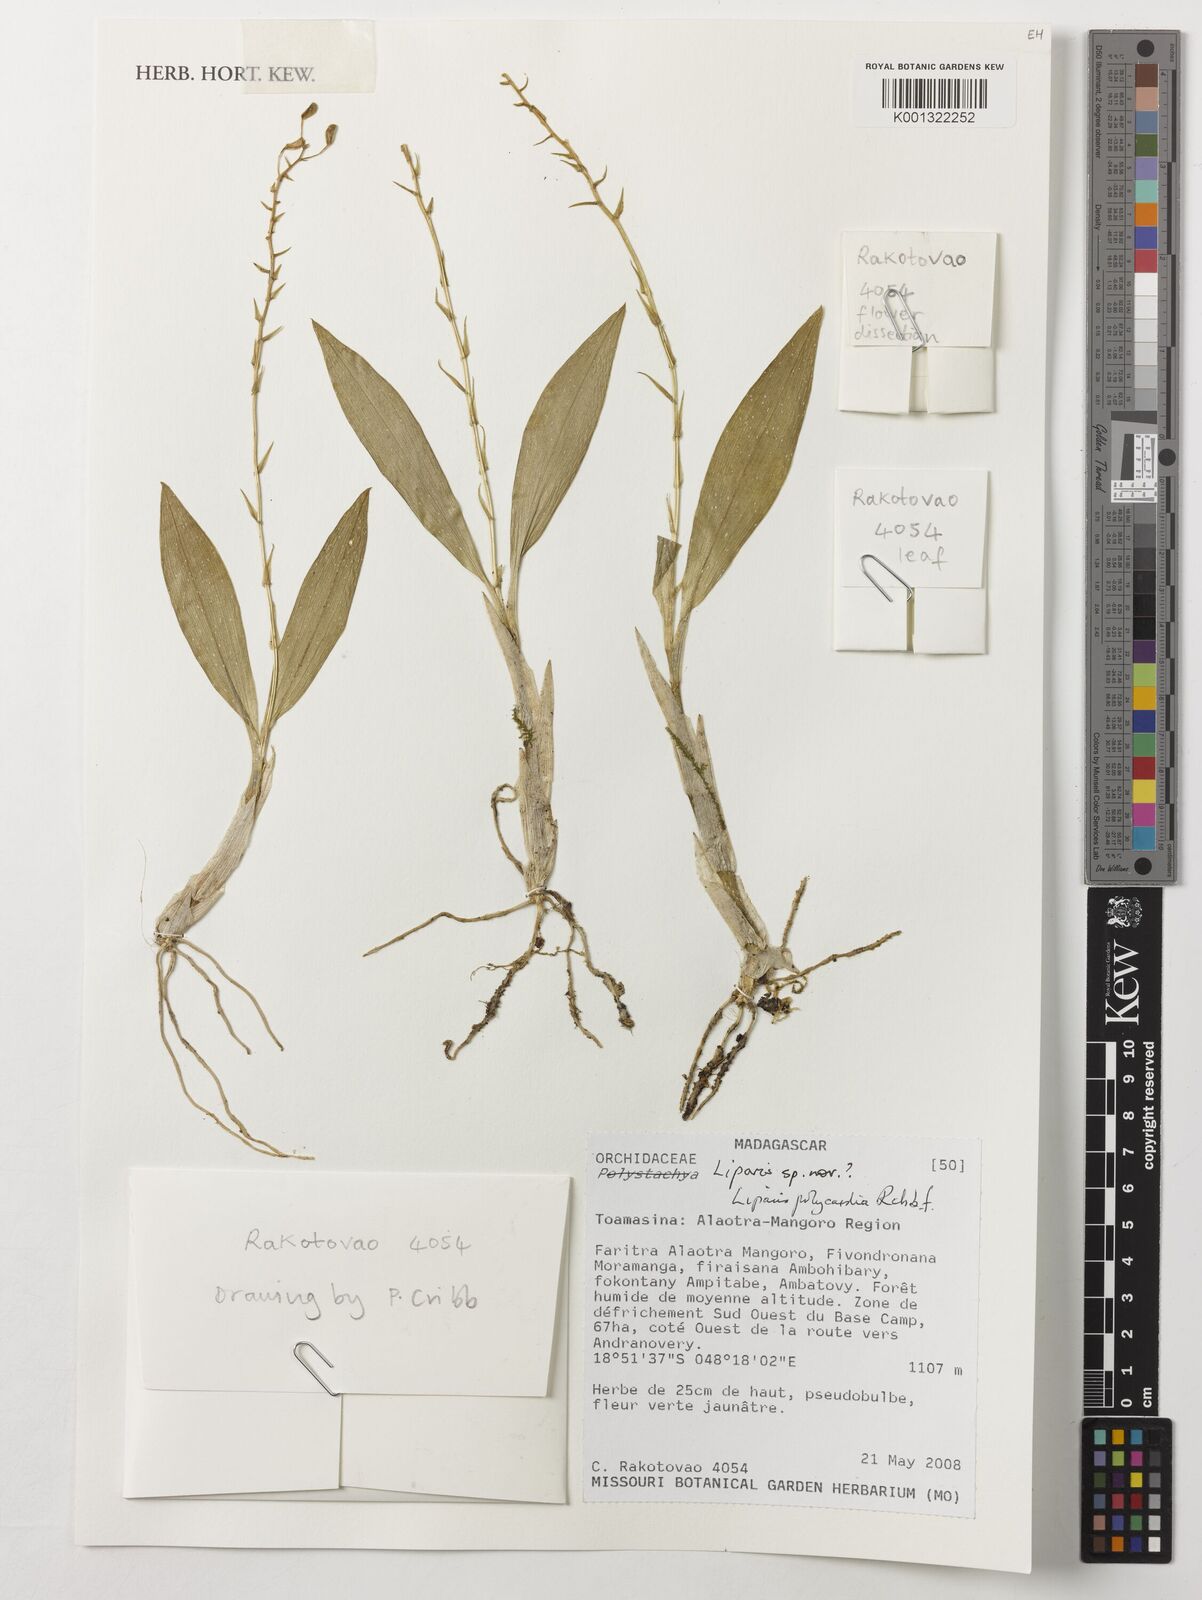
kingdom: Plantae
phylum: Tracheophyta
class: Liliopsida
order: Asparagales
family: Orchidaceae
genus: Liparis
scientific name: Liparis polycardia
